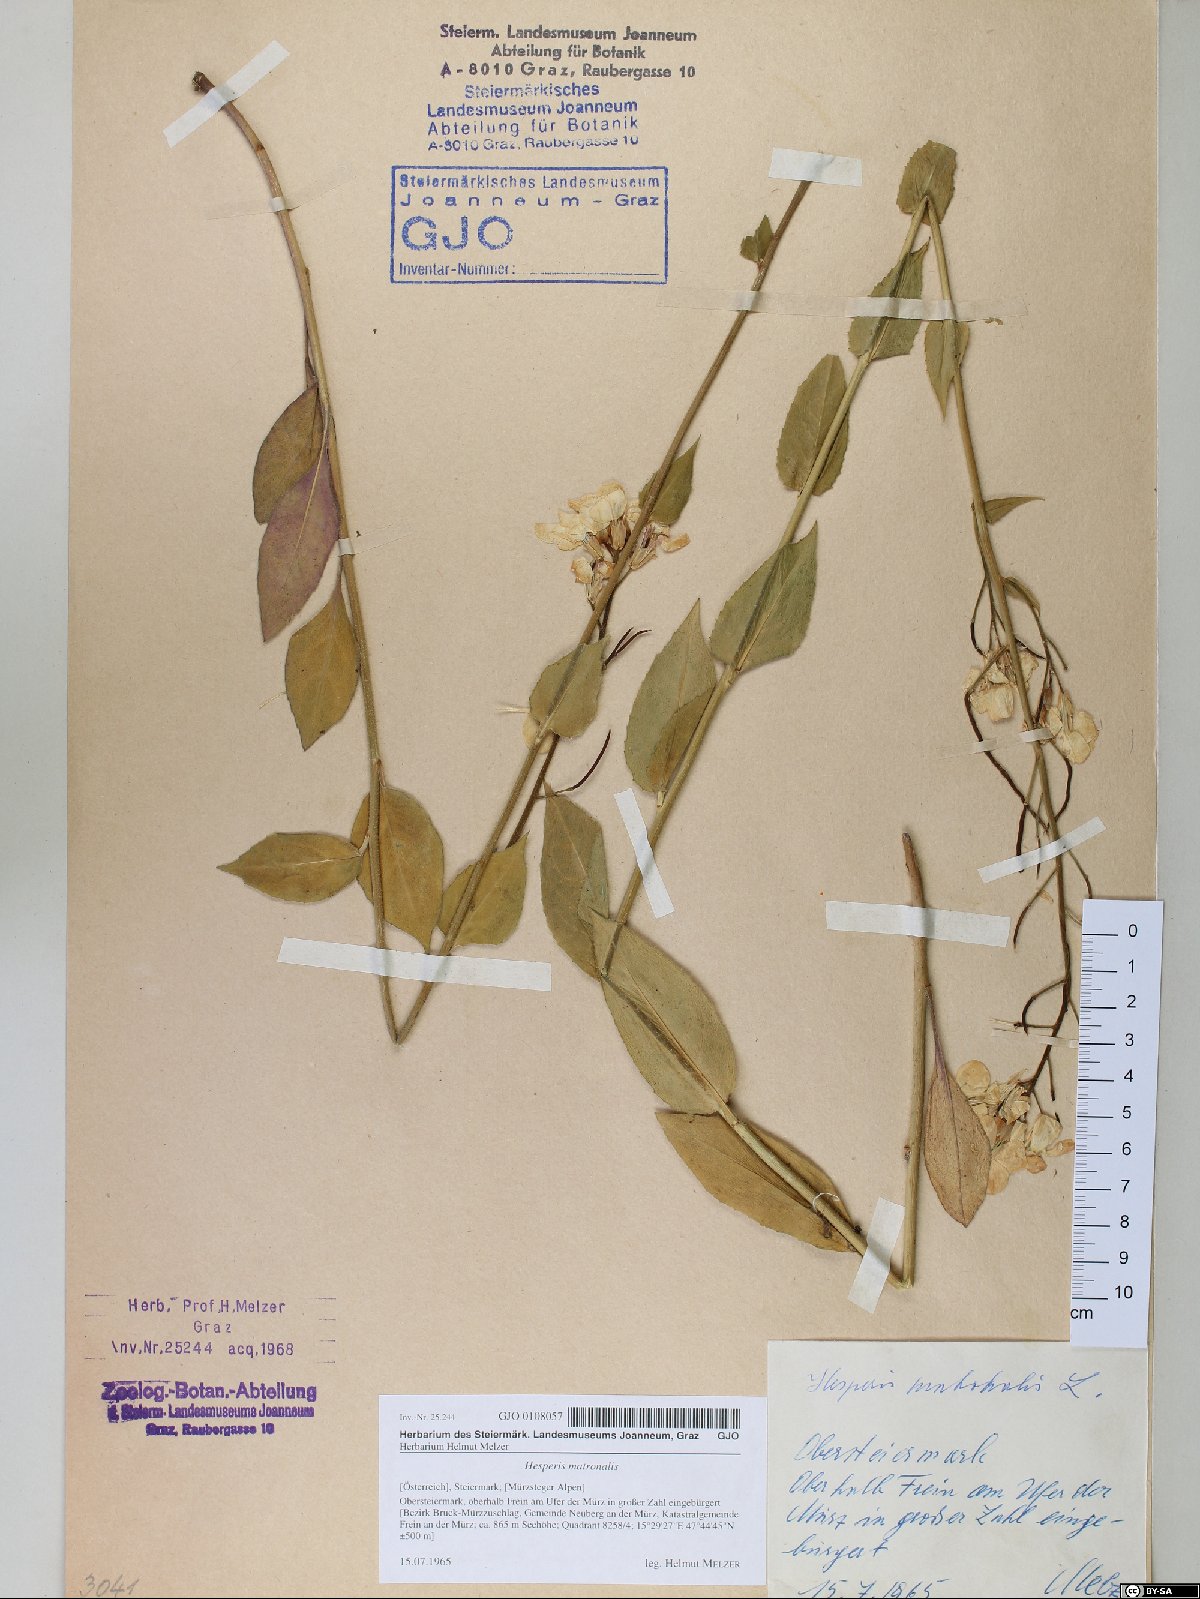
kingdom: Plantae
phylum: Tracheophyta
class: Magnoliopsida
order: Brassicales
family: Brassicaceae
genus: Hesperis
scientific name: Hesperis matronalis
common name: Dame's-violet
